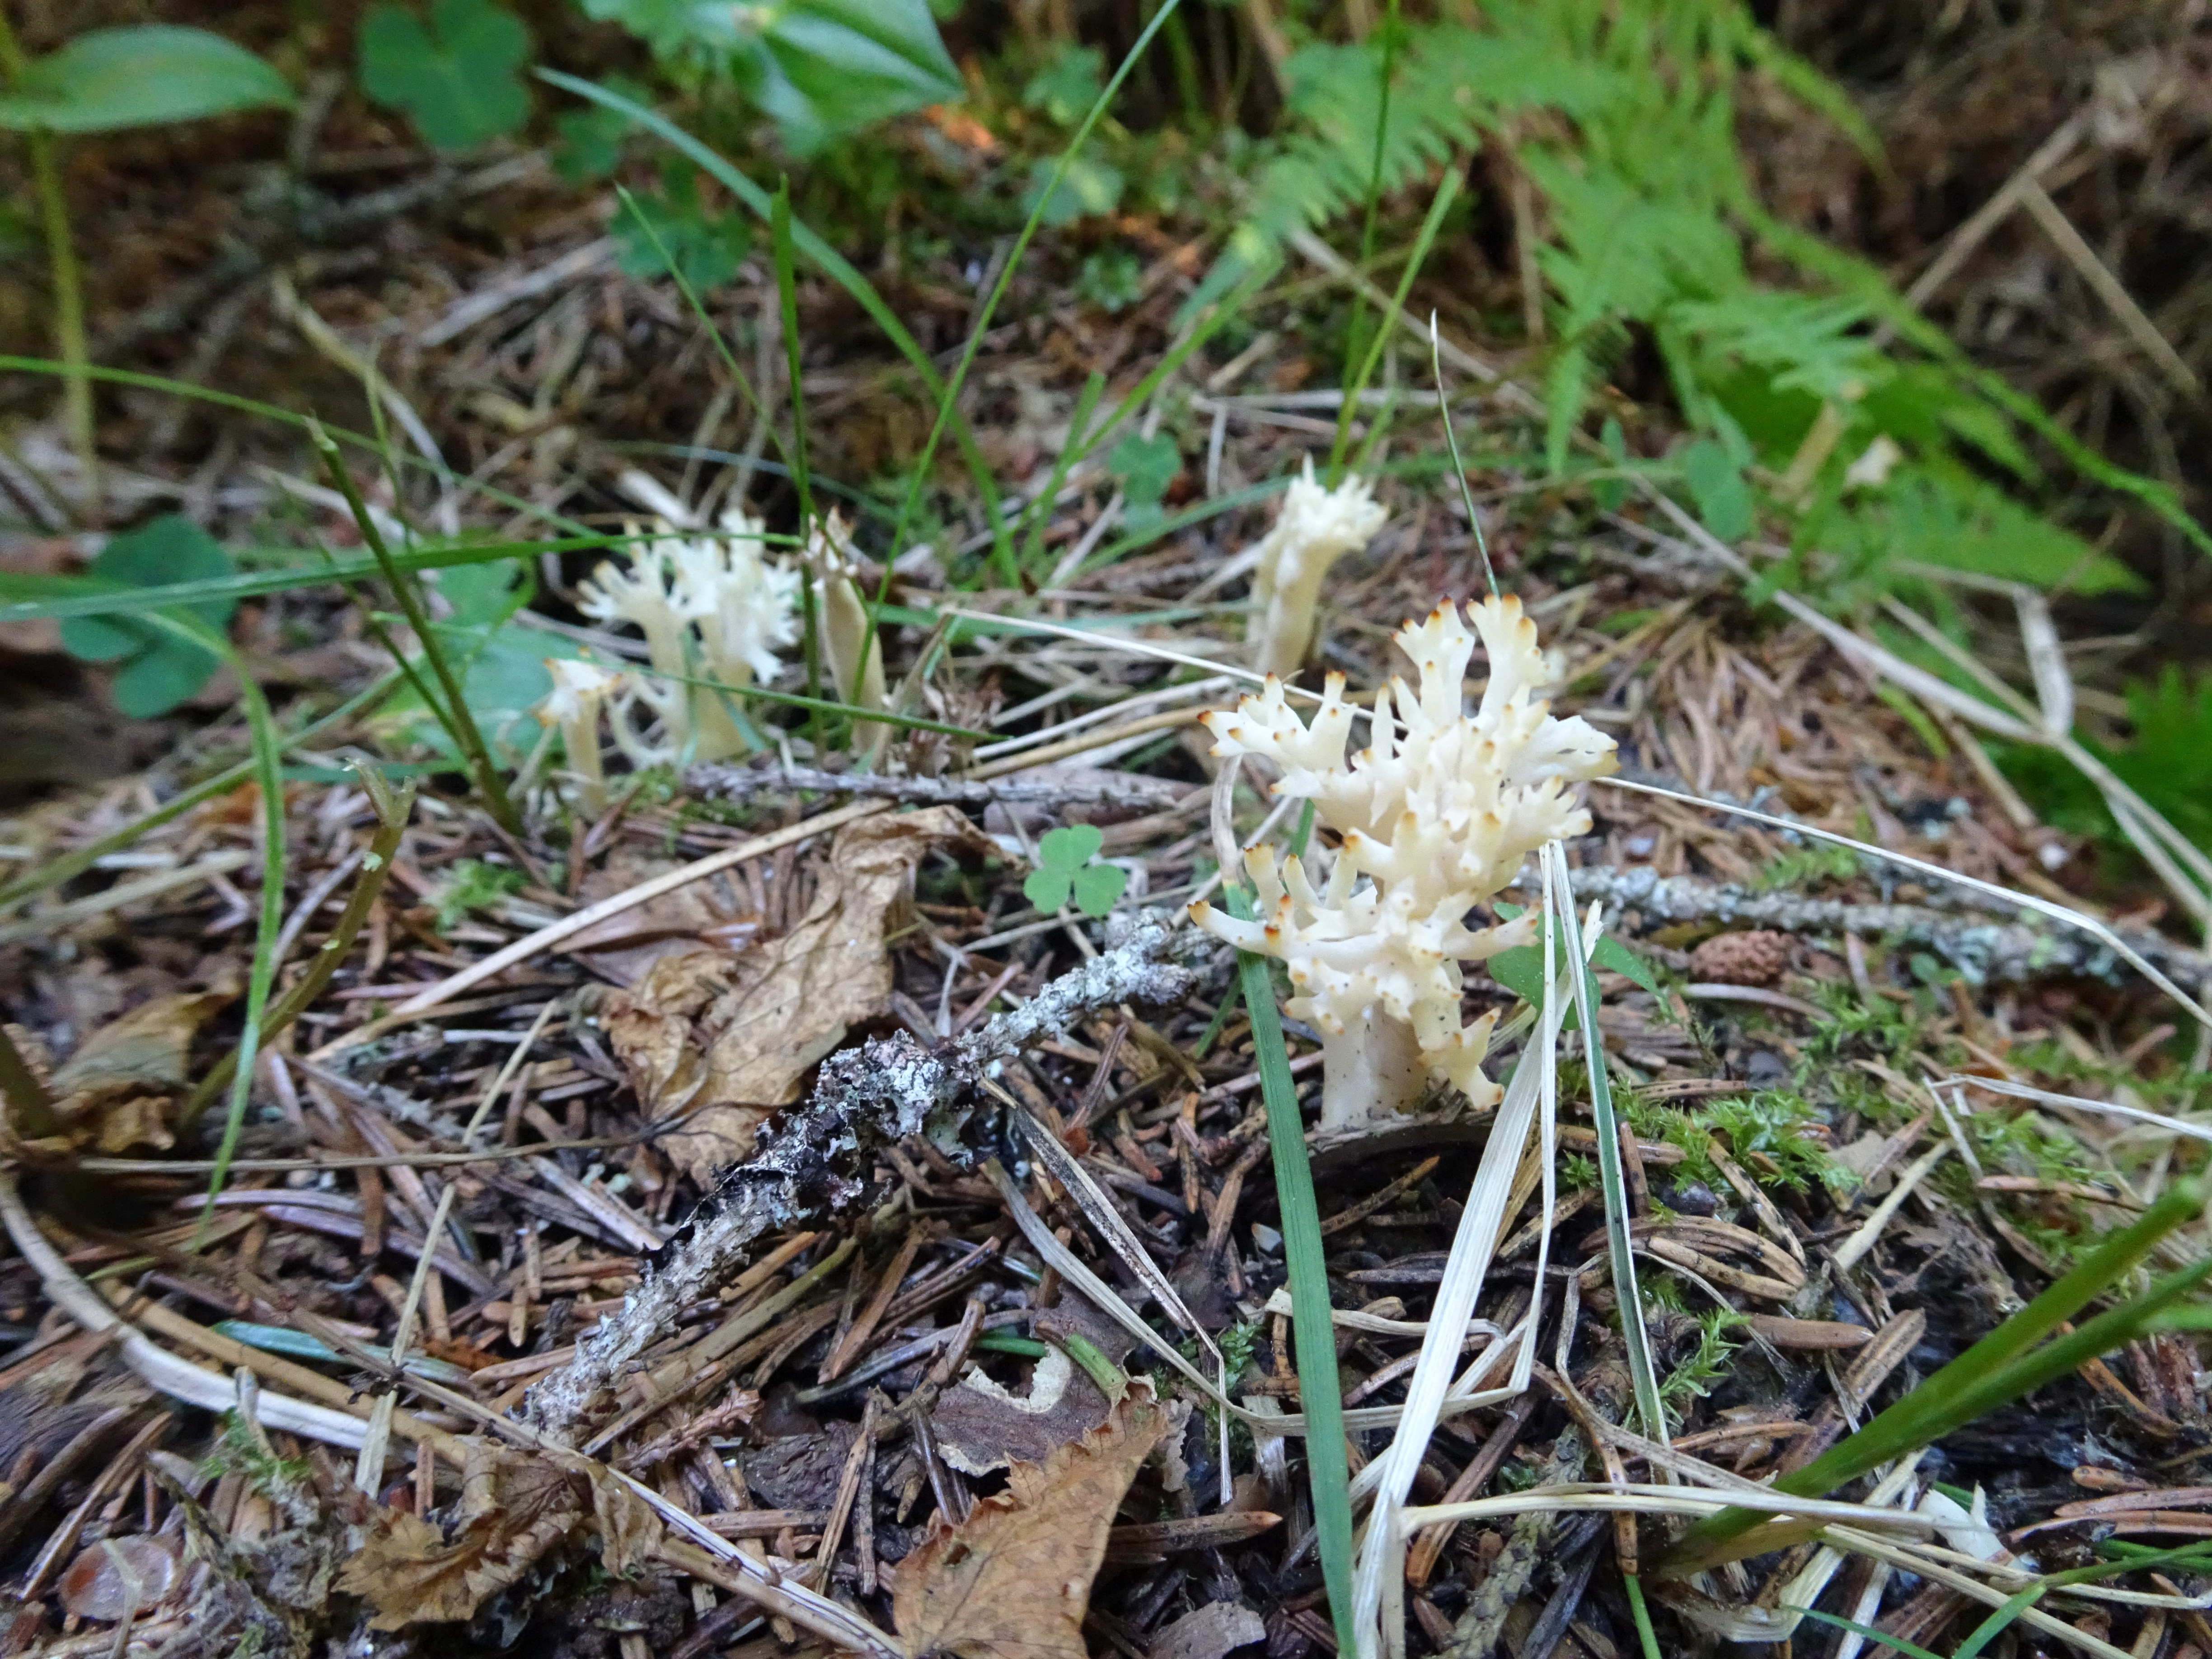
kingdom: Fungi
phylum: Basidiomycota
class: Agaricomycetes
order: Cantharellales
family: Hydnaceae
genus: Clavulina
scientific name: Clavulina
